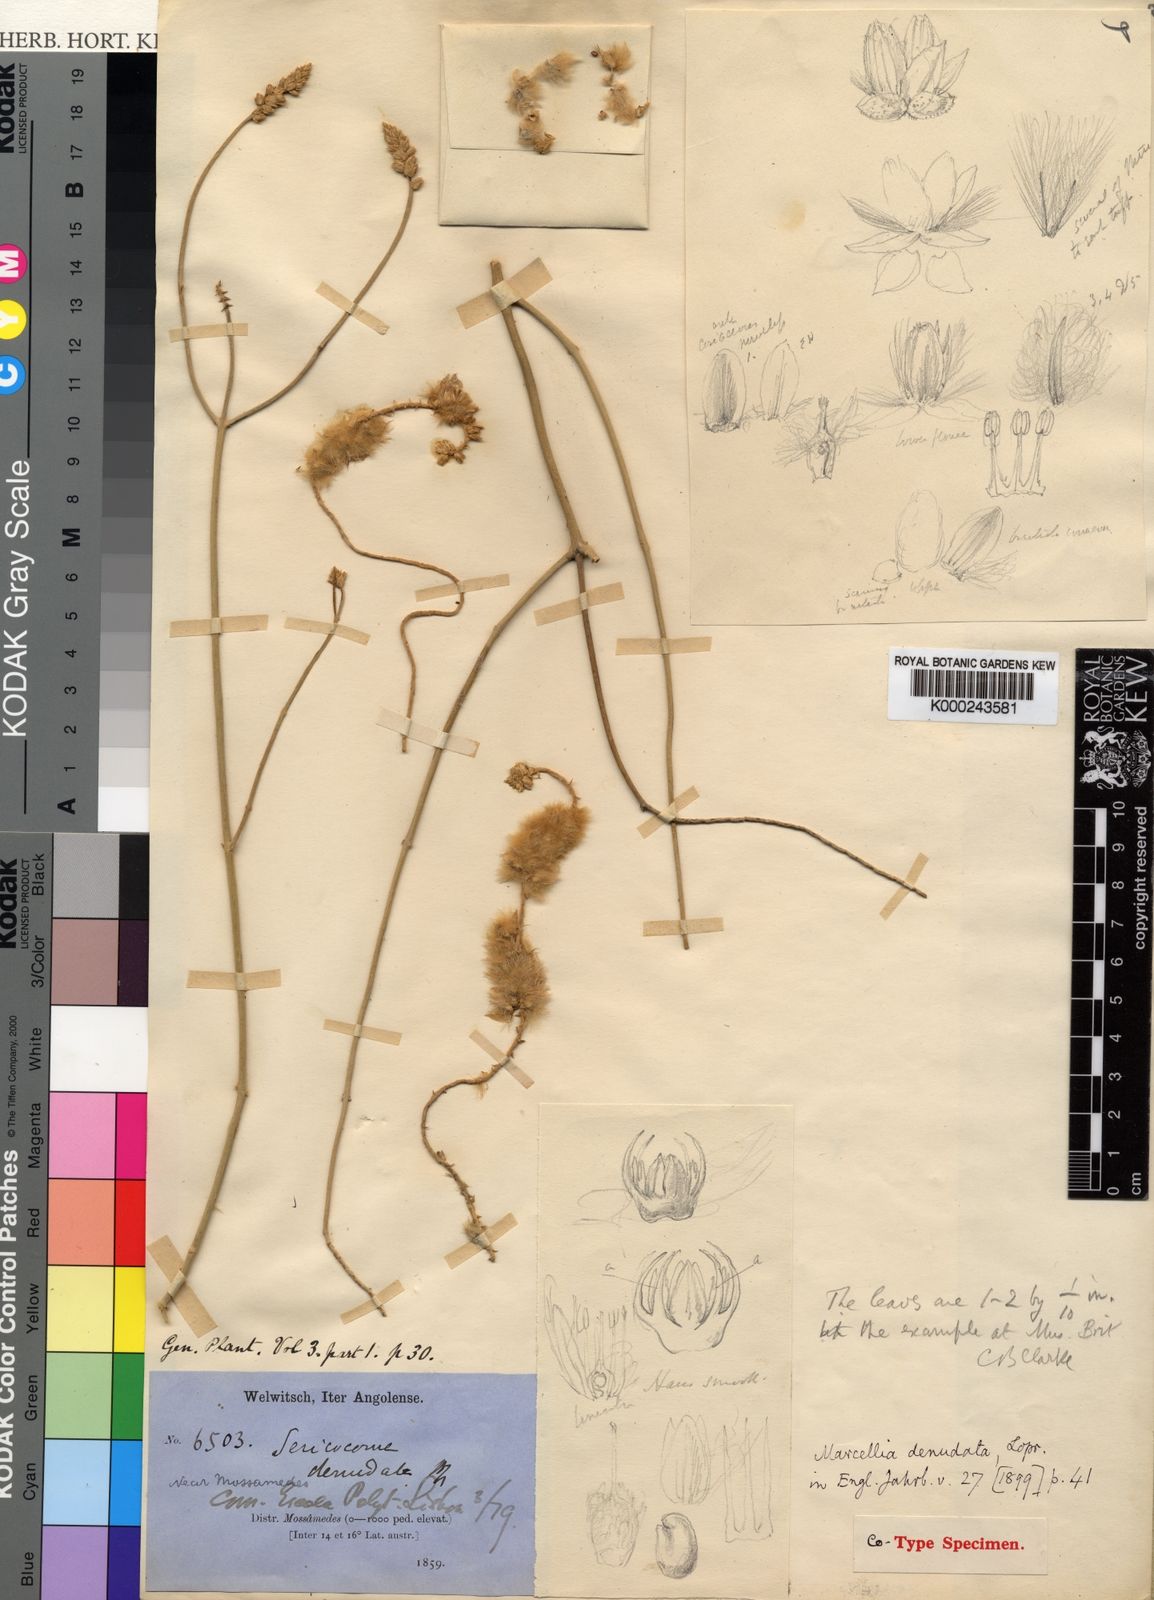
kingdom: Plantae
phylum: Tracheophyta
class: Magnoliopsida
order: Caryophyllales
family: Amaranthaceae
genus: Marcelliopsis
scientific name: Marcelliopsis
